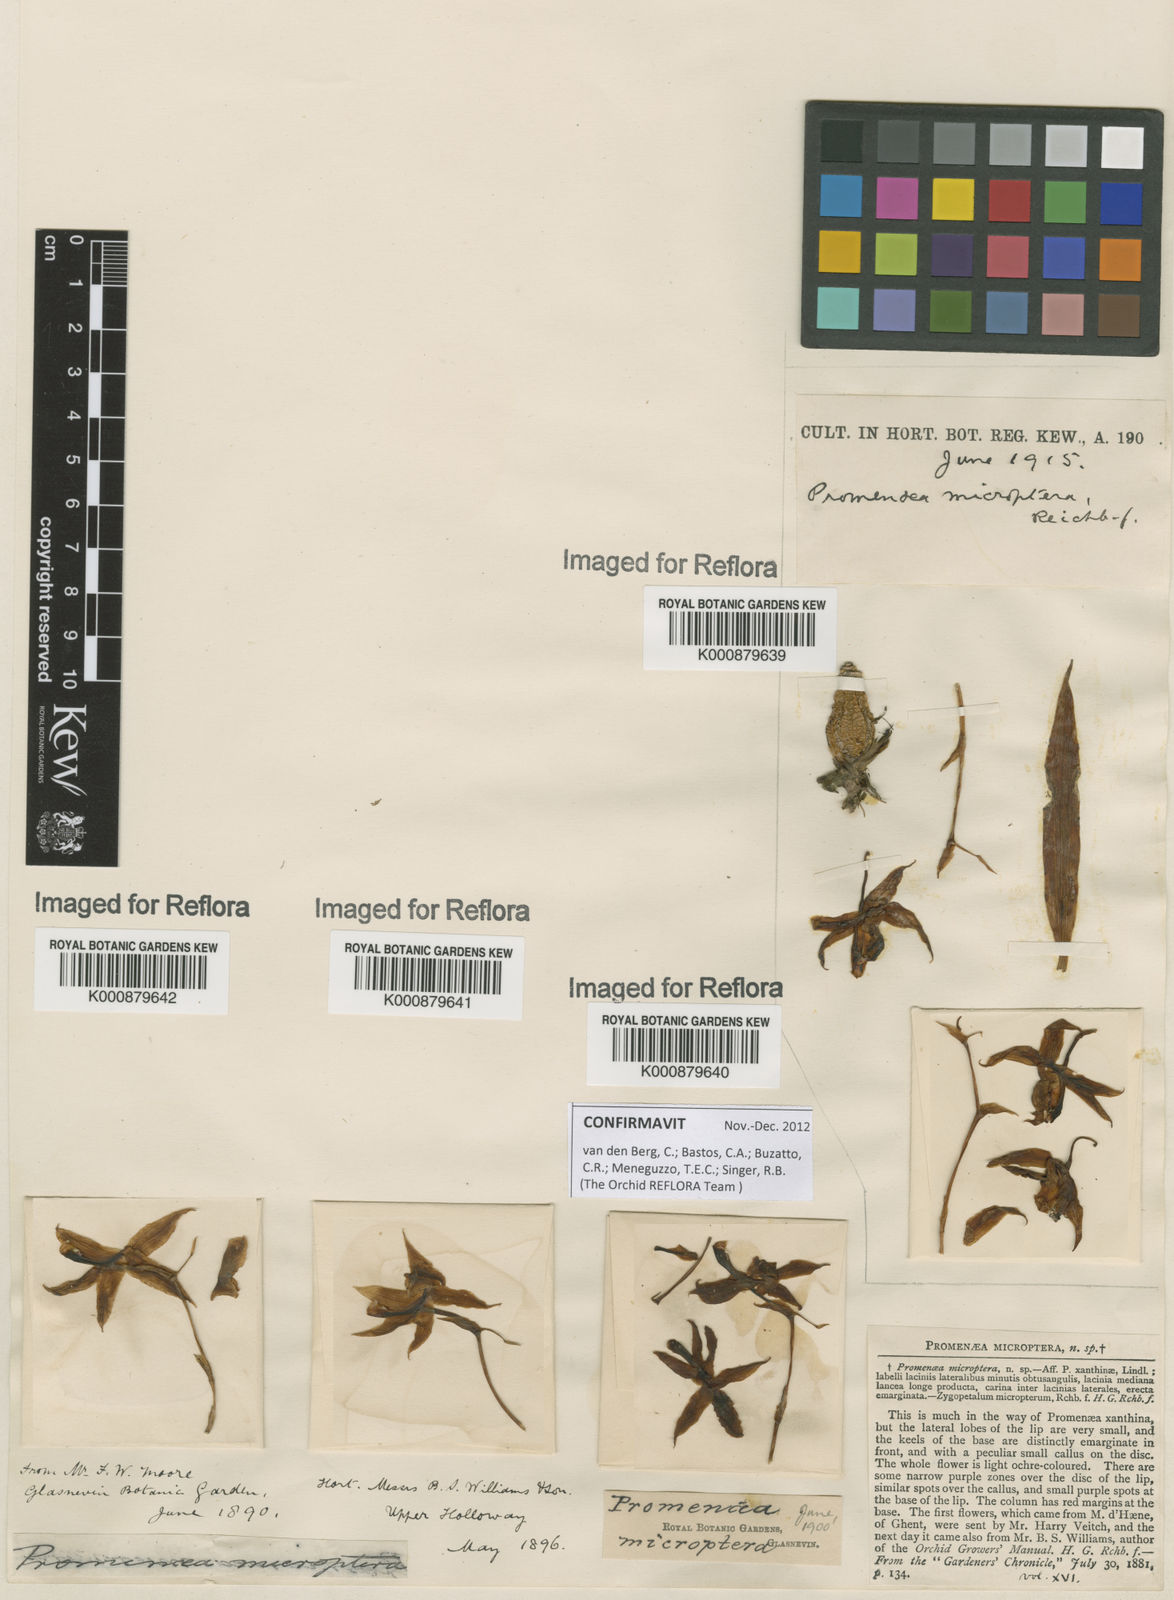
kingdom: Plantae
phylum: Tracheophyta
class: Liliopsida
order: Asparagales
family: Orchidaceae
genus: Promenaea
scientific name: Promenaea microptera
